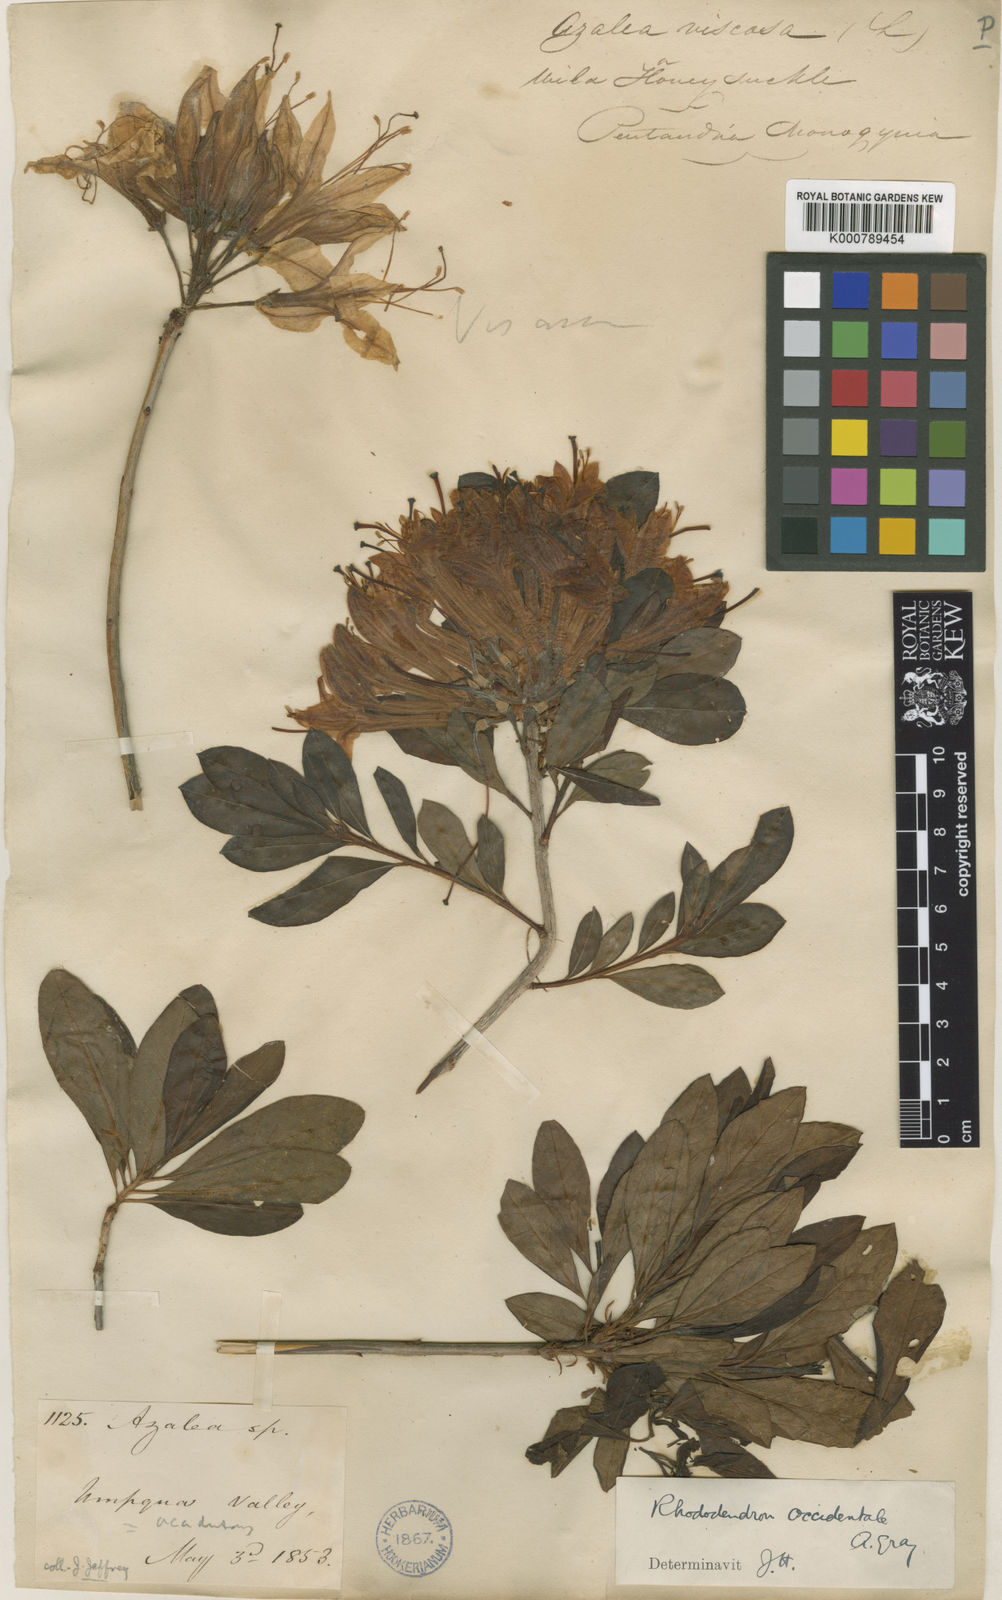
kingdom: Plantae
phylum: Tracheophyta
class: Magnoliopsida
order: Ericales
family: Ericaceae
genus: Rhododendron
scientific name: Rhododendron
